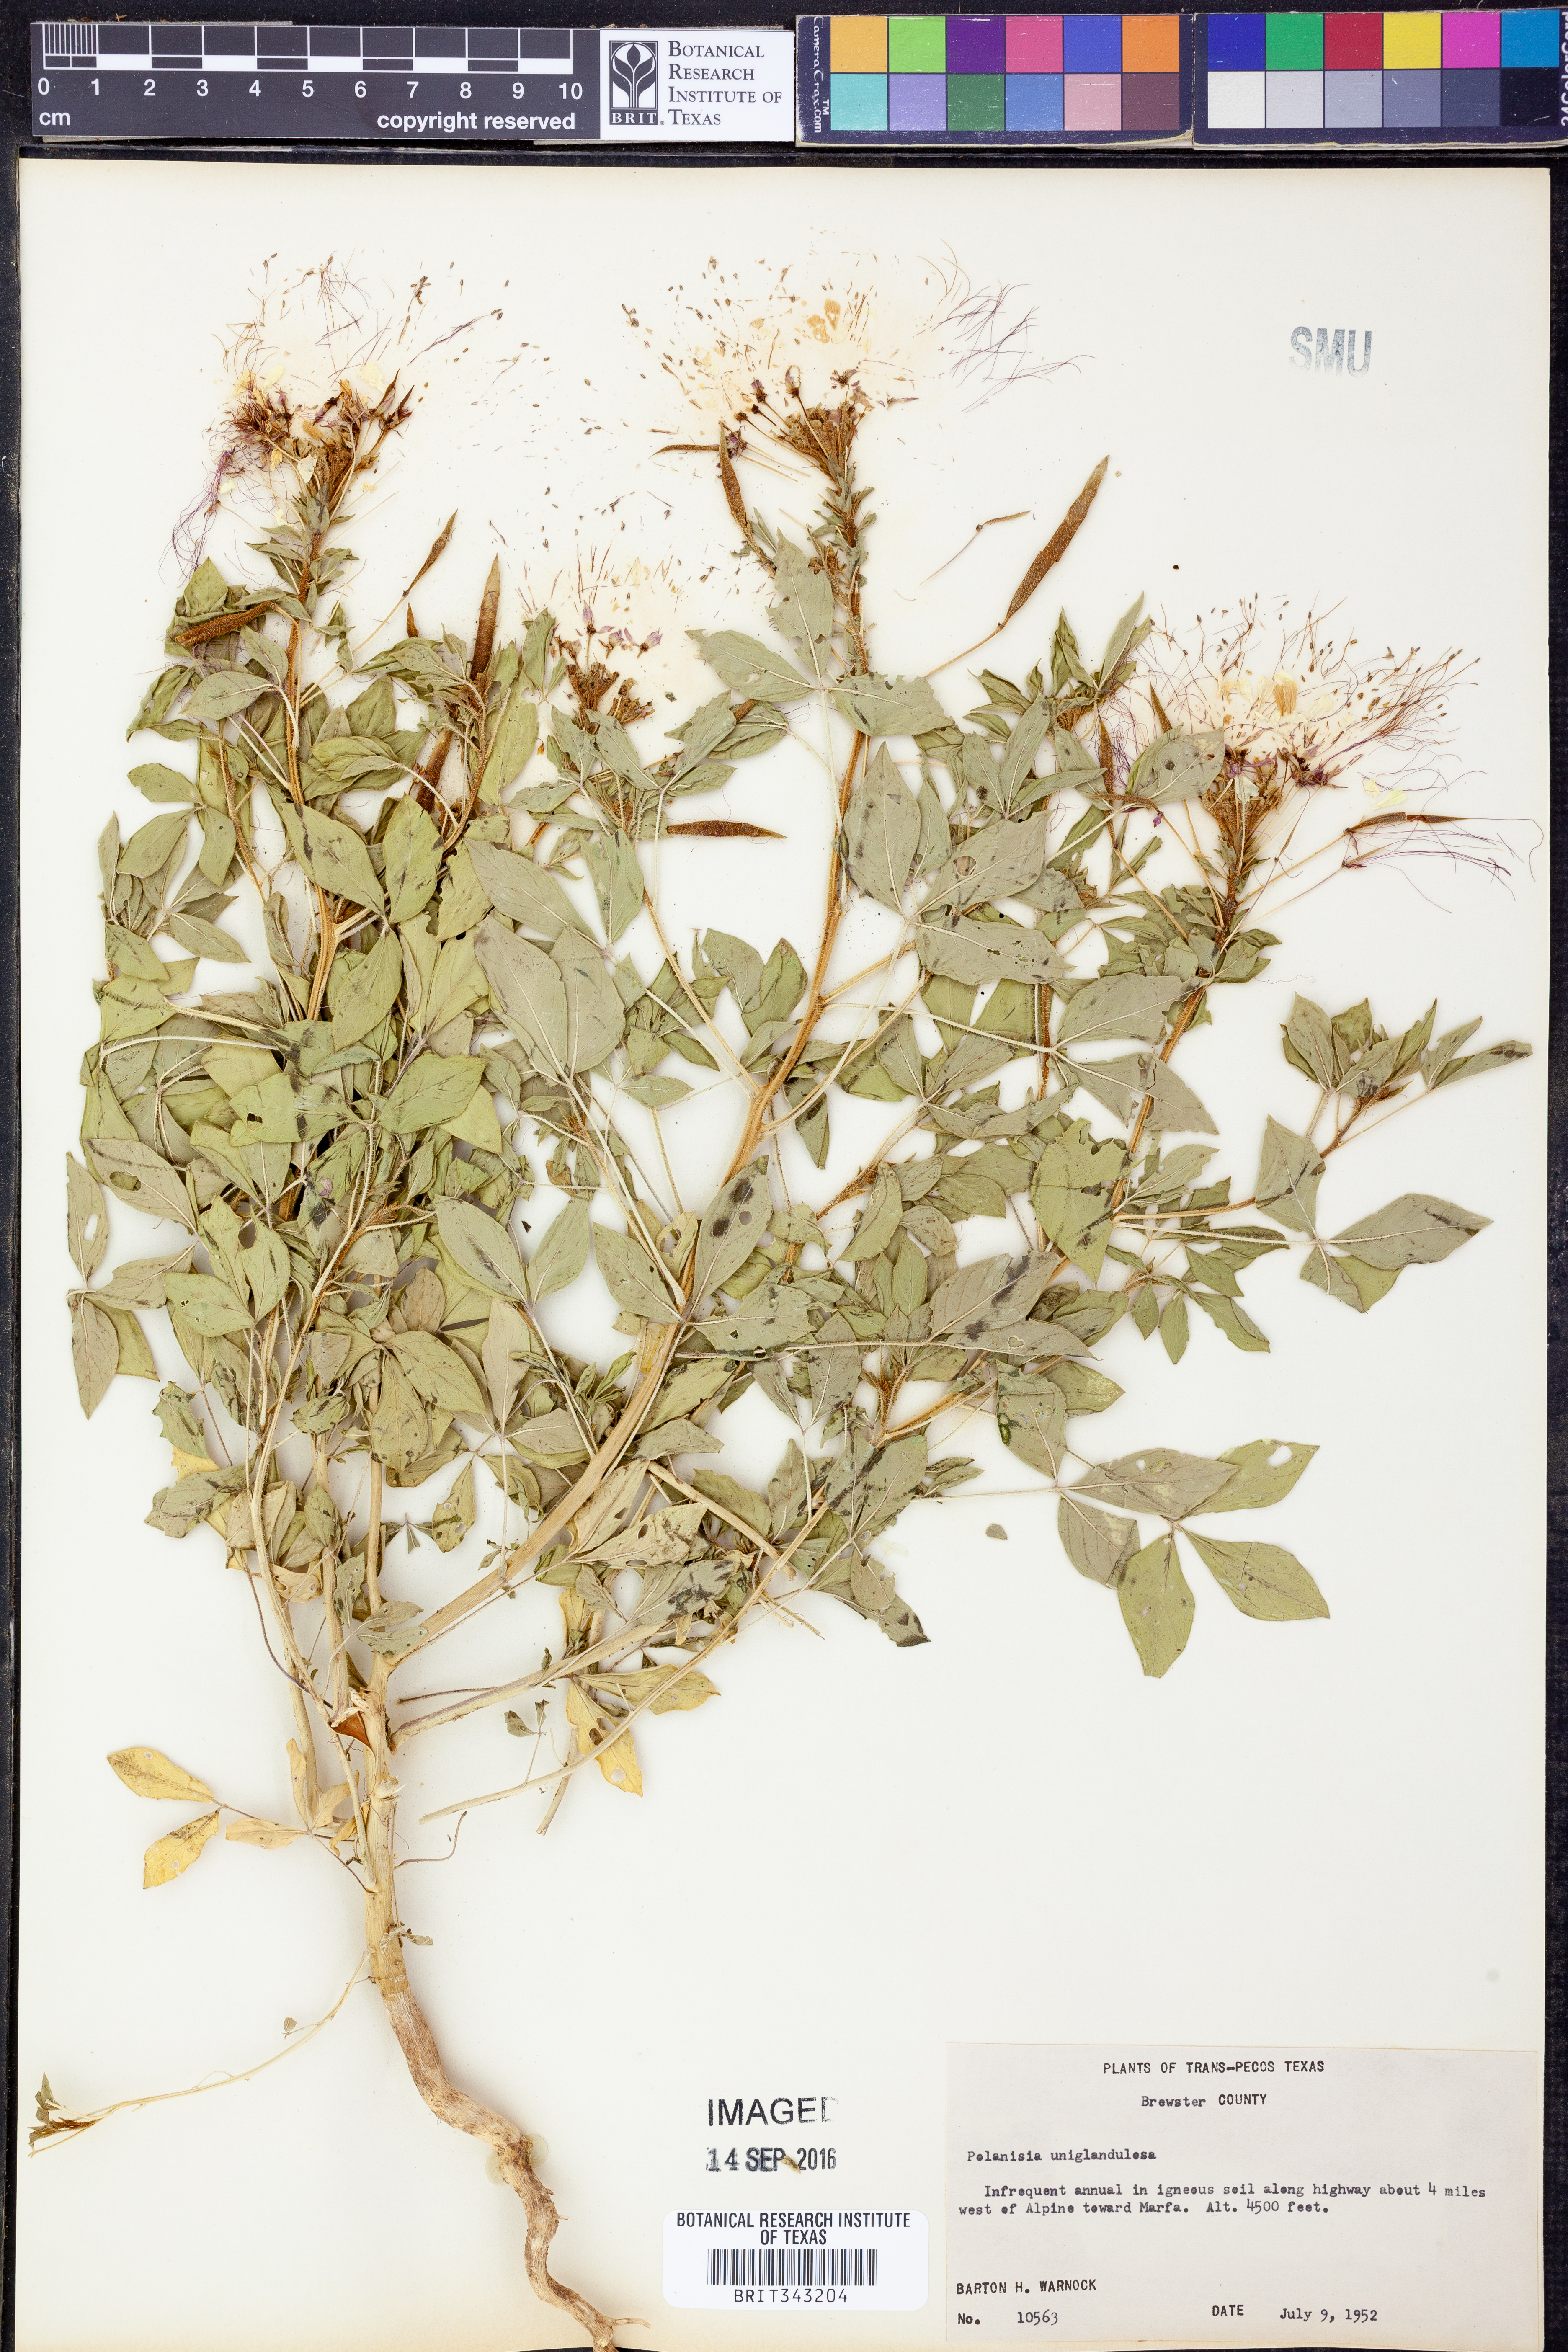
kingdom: Plantae
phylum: Tracheophyta
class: Magnoliopsida
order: Brassicales
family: Cleomaceae
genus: Polanisia
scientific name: Polanisia uniglandulosa
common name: Mexican clammyweed
